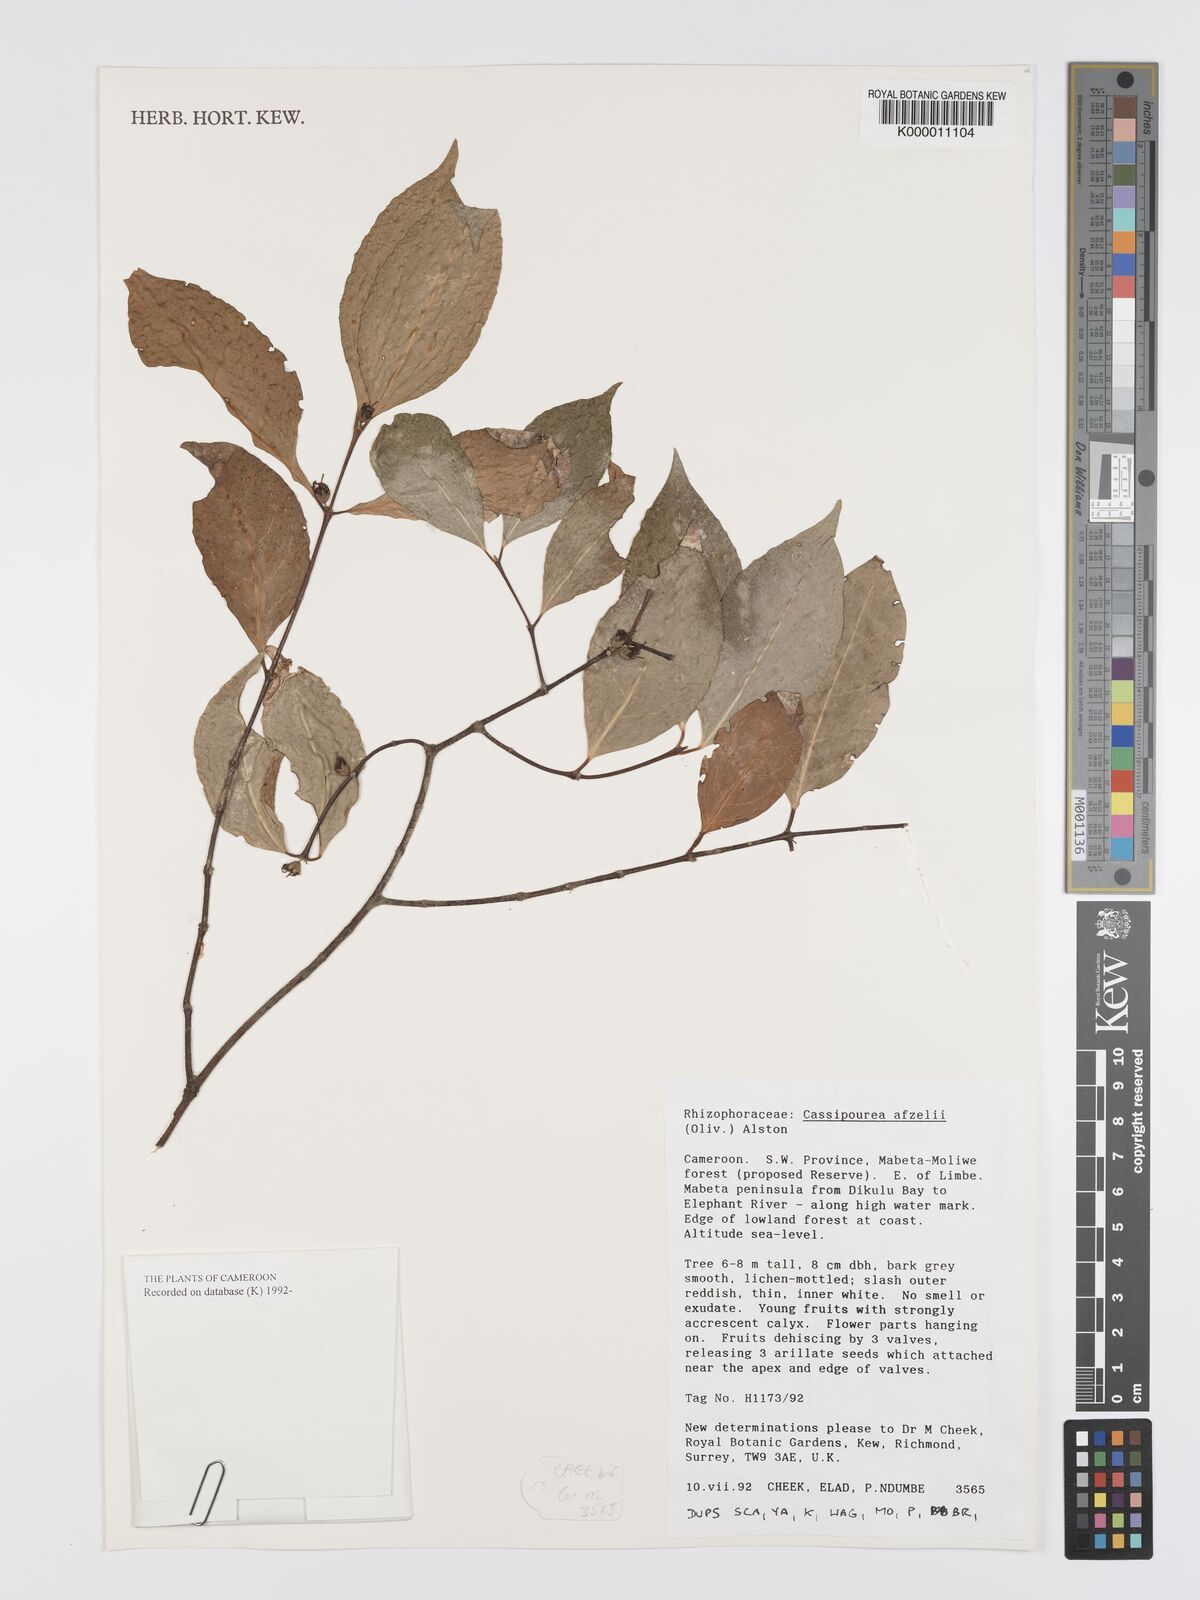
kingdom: Plantae
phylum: Tracheophyta
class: Magnoliopsida
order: Malpighiales
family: Rhizophoraceae
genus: Cassipourea
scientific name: Cassipourea afzelii
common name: Elephant tusk tree
